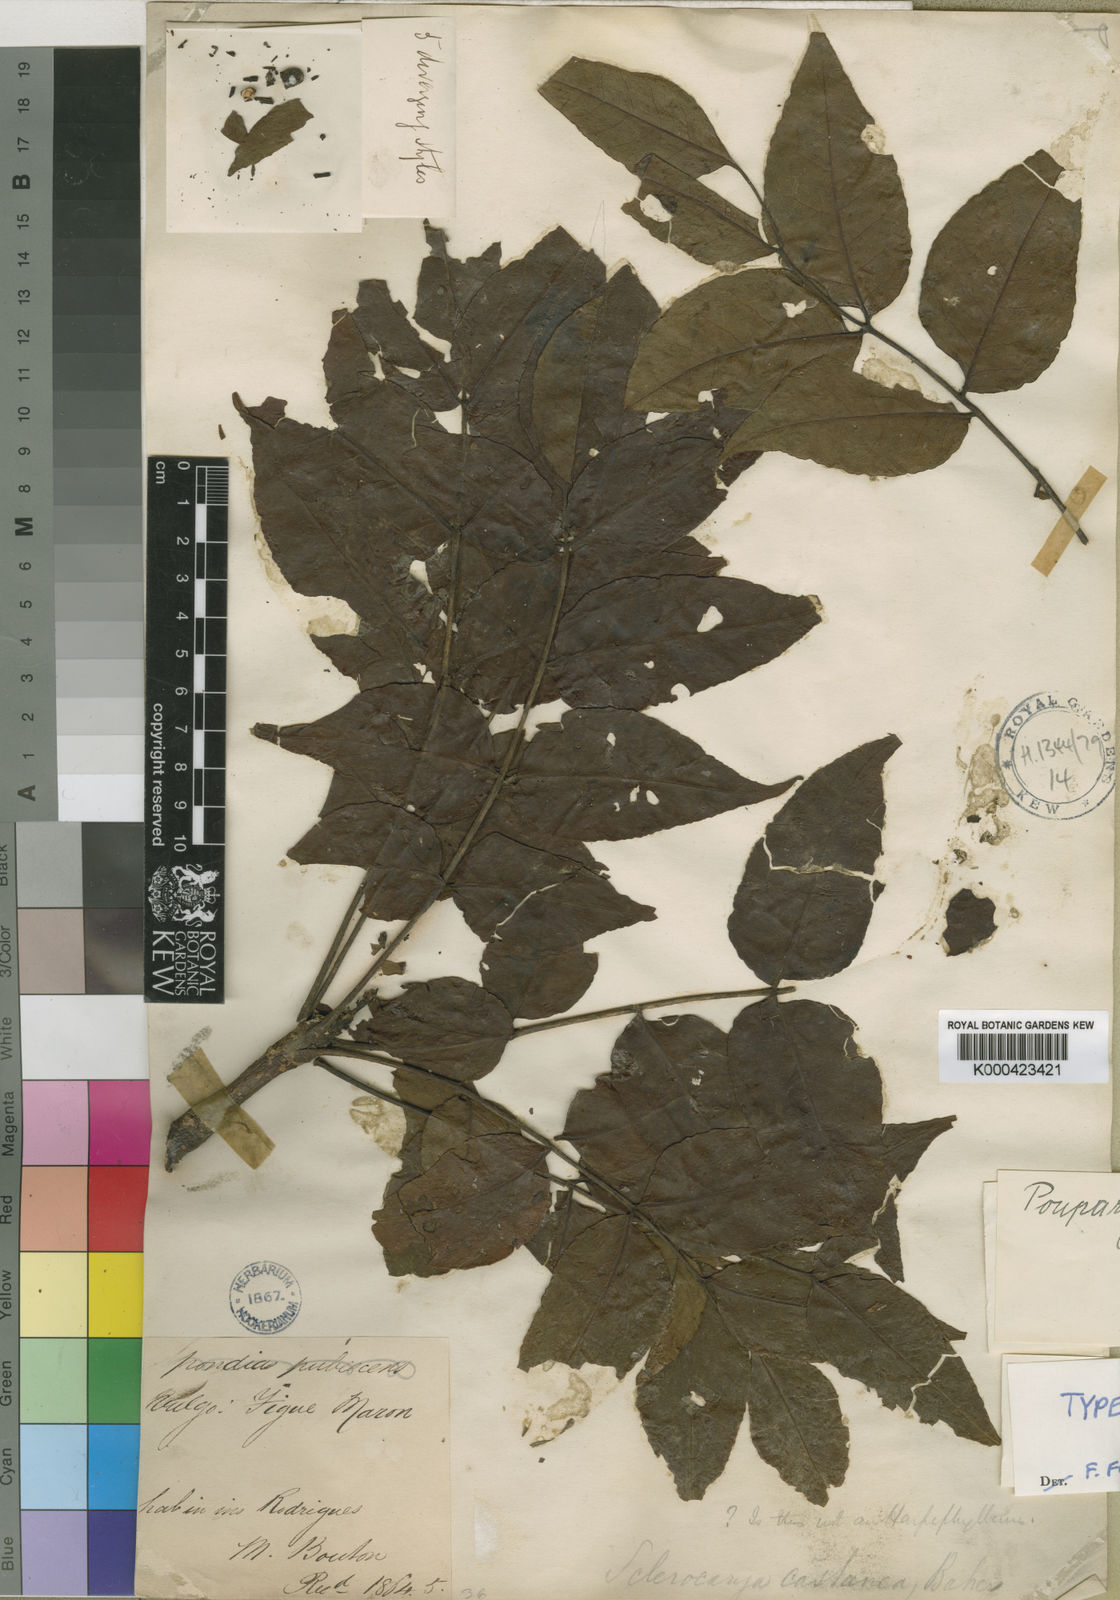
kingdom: Plantae
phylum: Tracheophyta
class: Magnoliopsida
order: Sapindales
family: Anacardiaceae
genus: Poupartia
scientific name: Poupartia castanea
